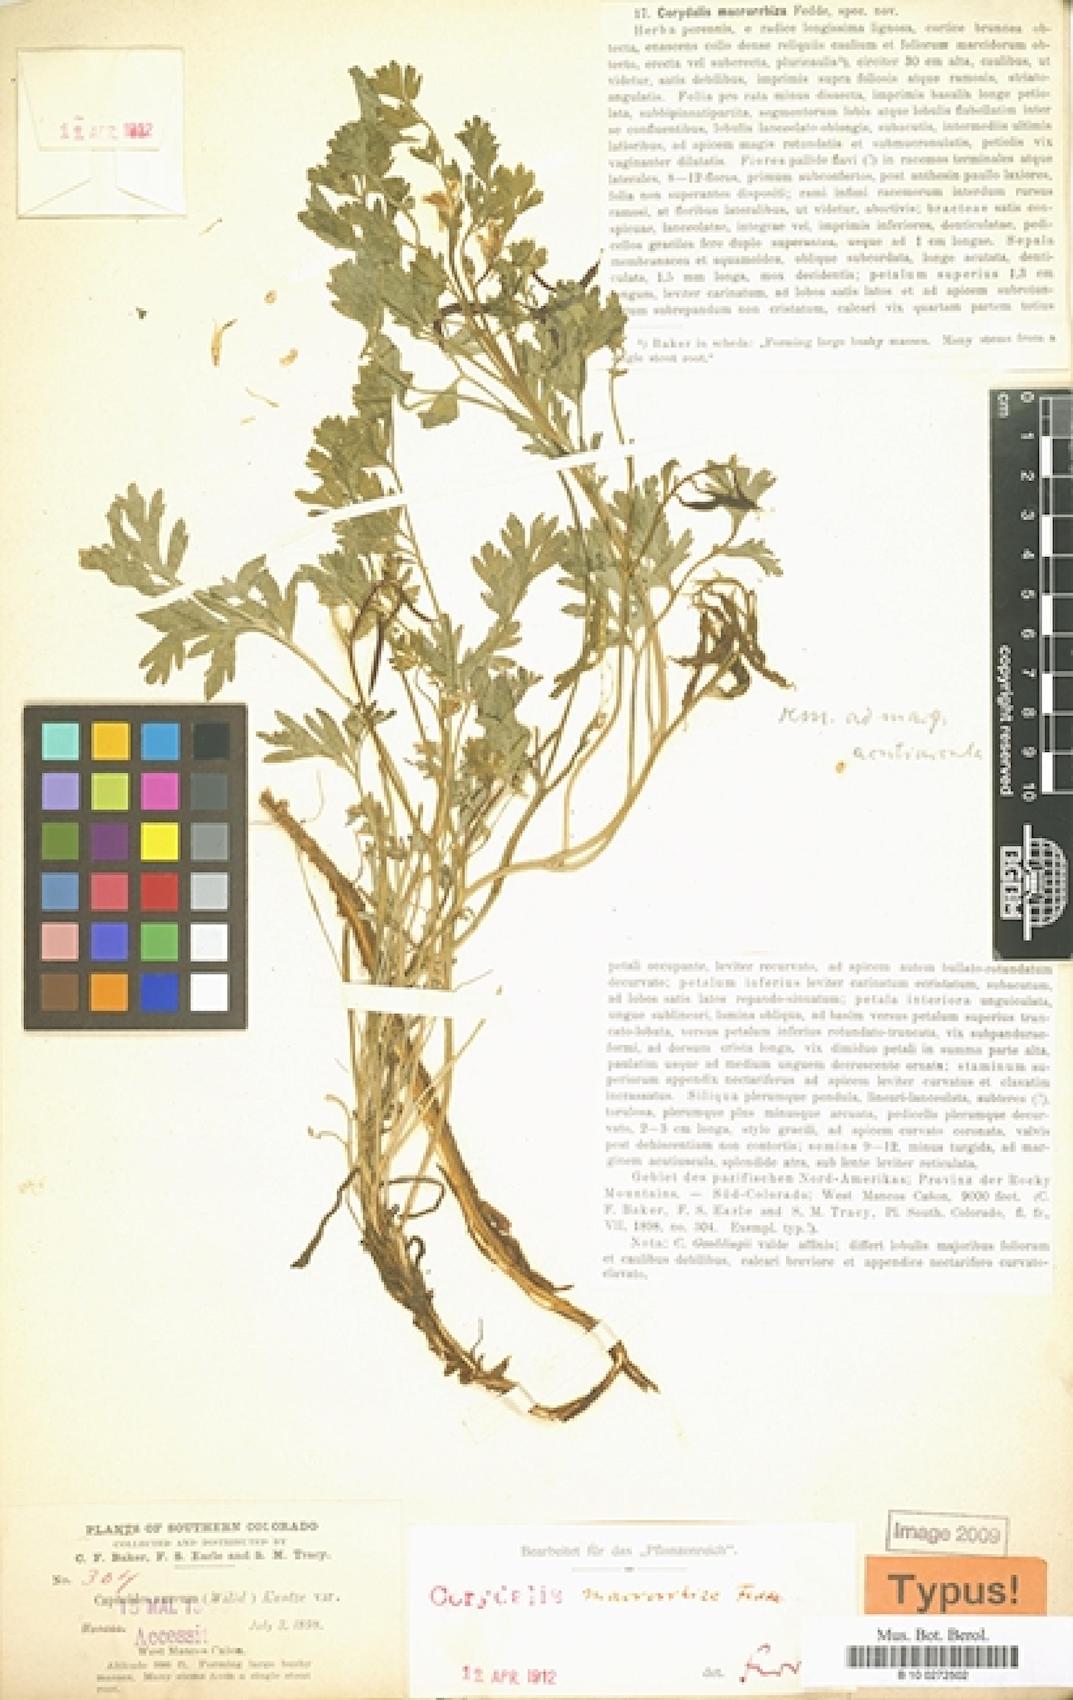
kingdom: Plantae
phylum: Tracheophyta
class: Magnoliopsida
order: Ranunculales
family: Papaveraceae
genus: Corydalis
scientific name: Corydalis aurea
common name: Golden corydalis
